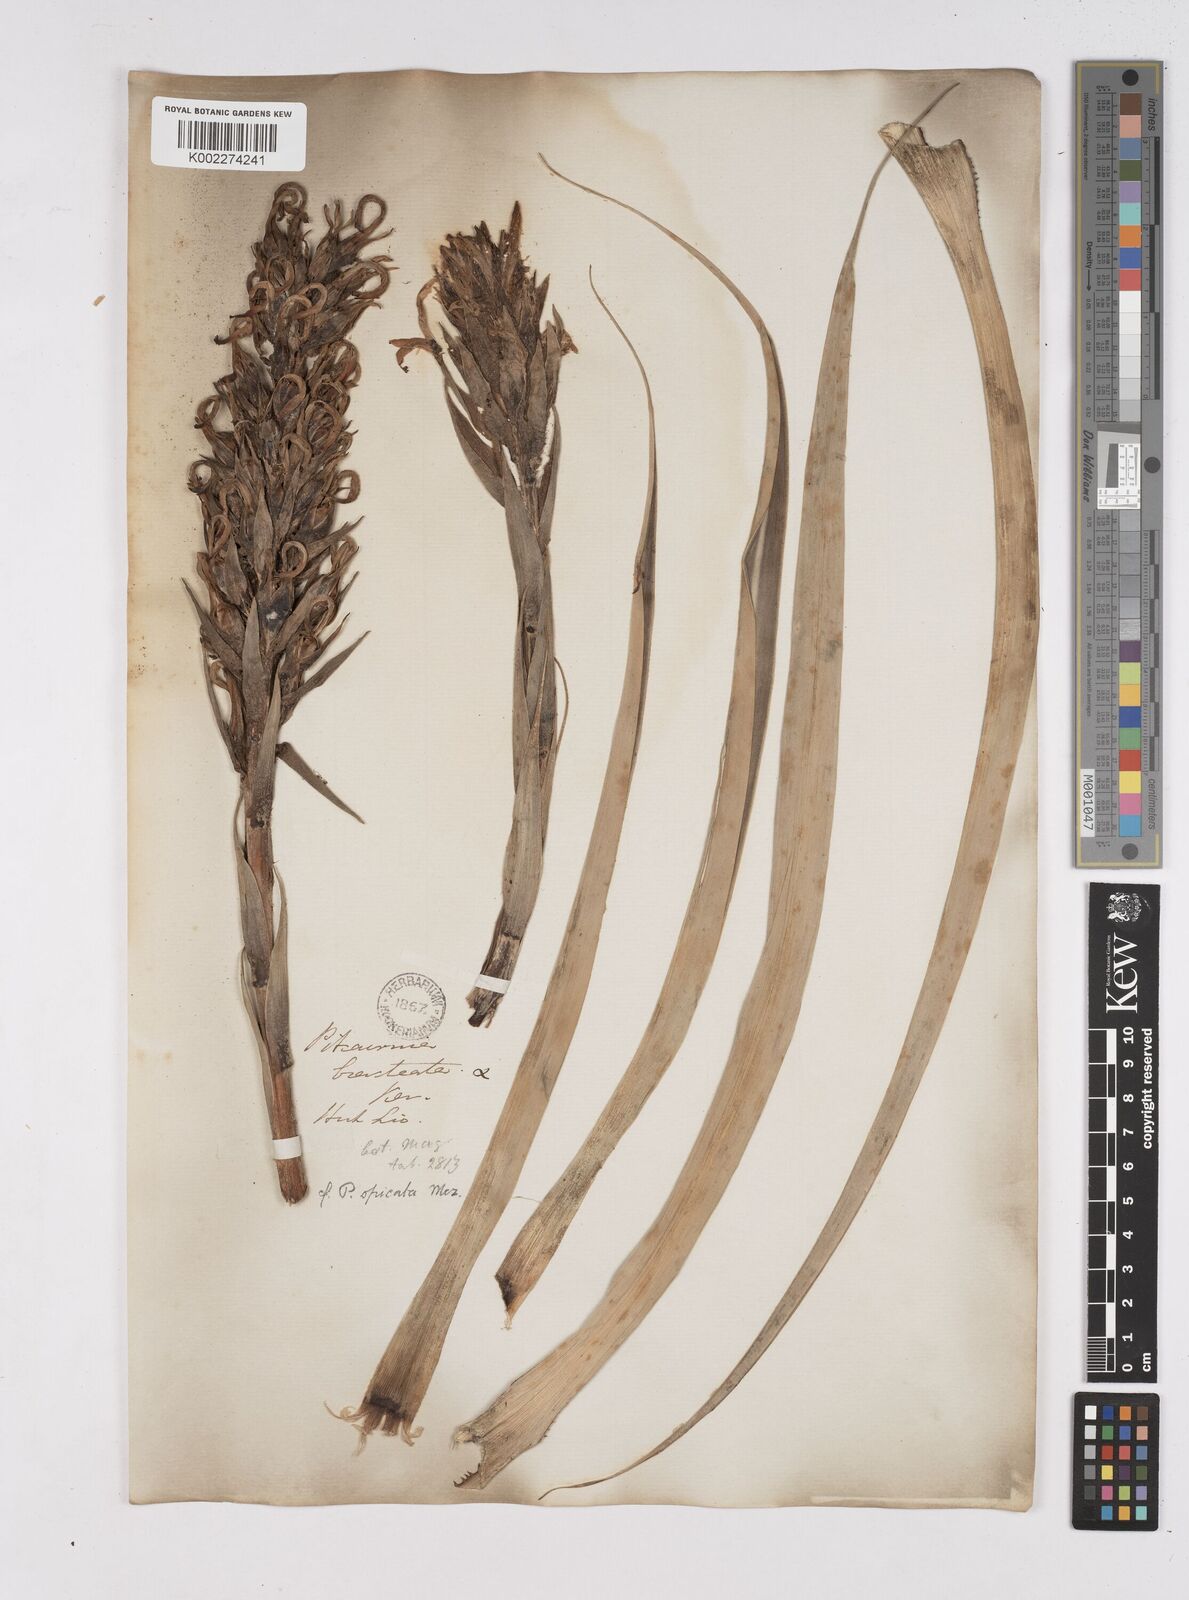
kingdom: Plantae
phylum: Tracheophyta
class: Liliopsida
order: Poales
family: Bromeliaceae
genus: Pitcairnia
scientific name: Pitcairnia spicata
